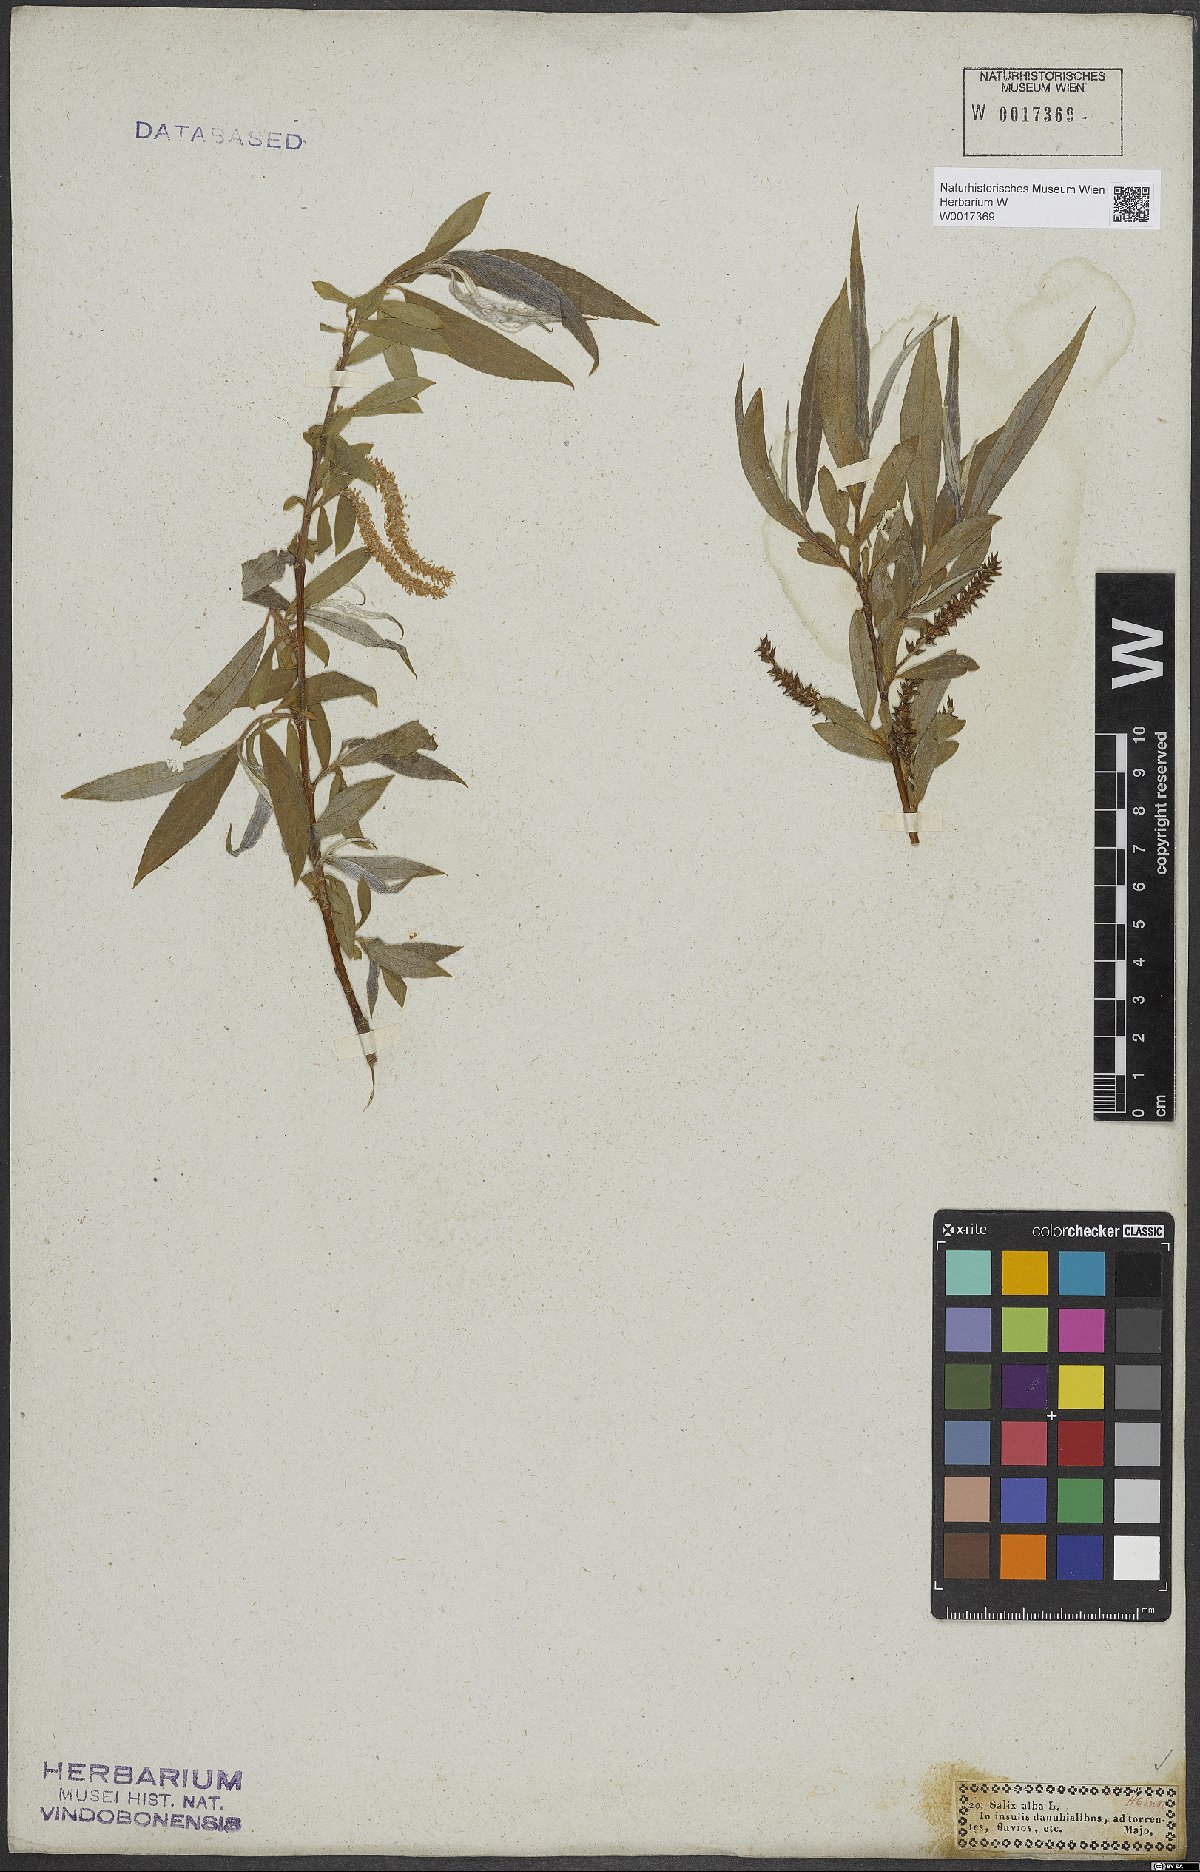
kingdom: Plantae
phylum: Tracheophyta
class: Magnoliopsida
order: Malpighiales
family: Salicaceae
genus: Salix
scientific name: Salix alba
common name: White willow
